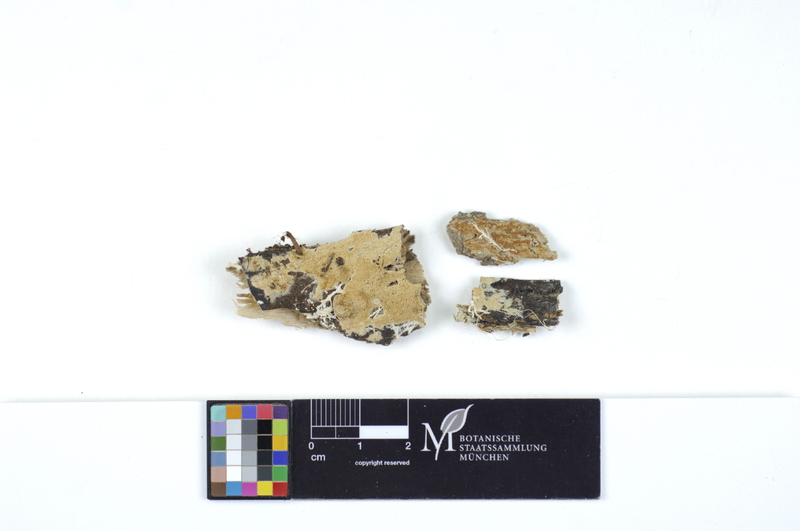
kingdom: Fungi
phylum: Basidiomycota
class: Agaricomycetes
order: Polyporales
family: Irpicaceae
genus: Ceriporia
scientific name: Ceriporia viridans
